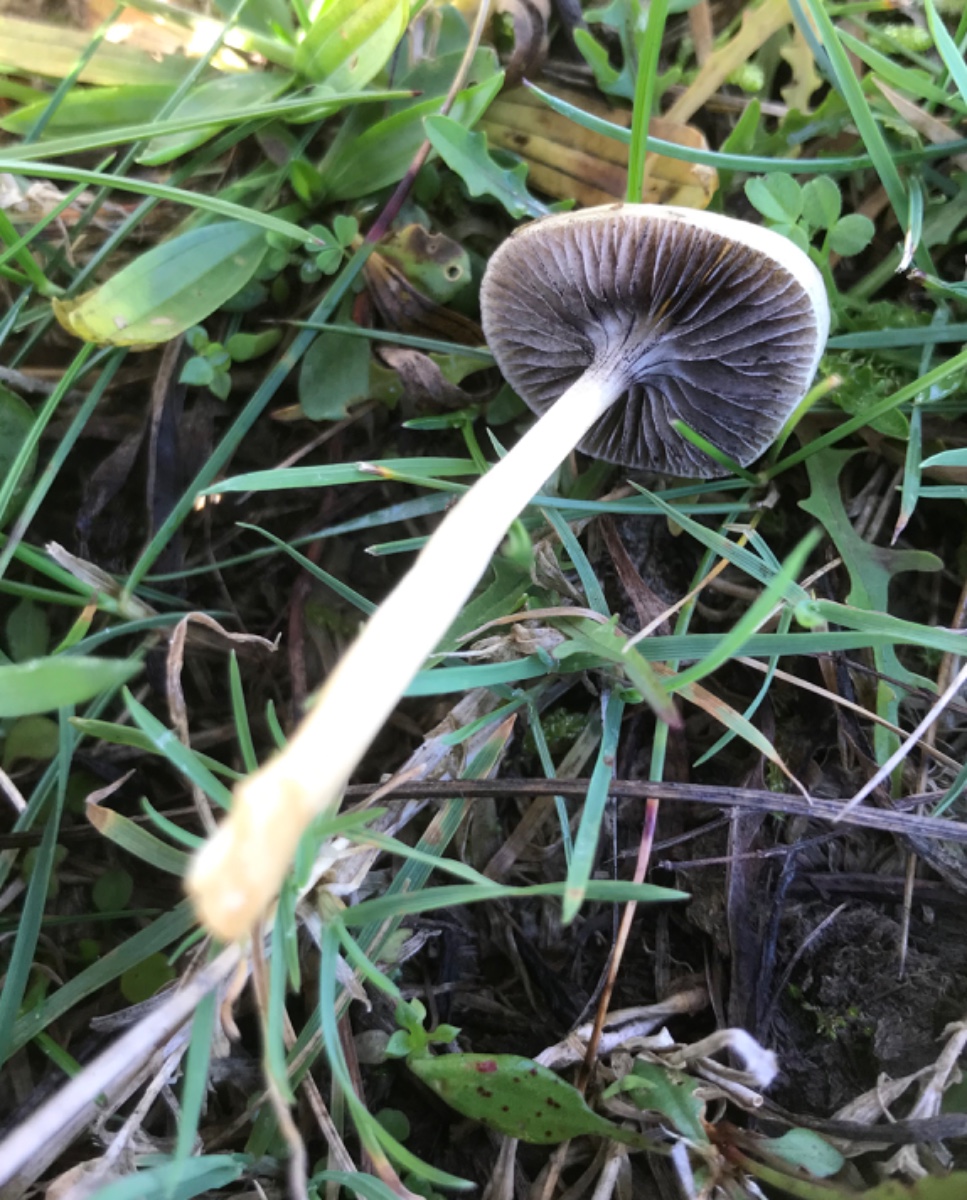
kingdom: Fungi
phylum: Basidiomycota
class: Agaricomycetes
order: Agaricales
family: Strophariaceae
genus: Protostropharia
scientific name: Protostropharia semiglobata
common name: halvkugleformet bredblad
